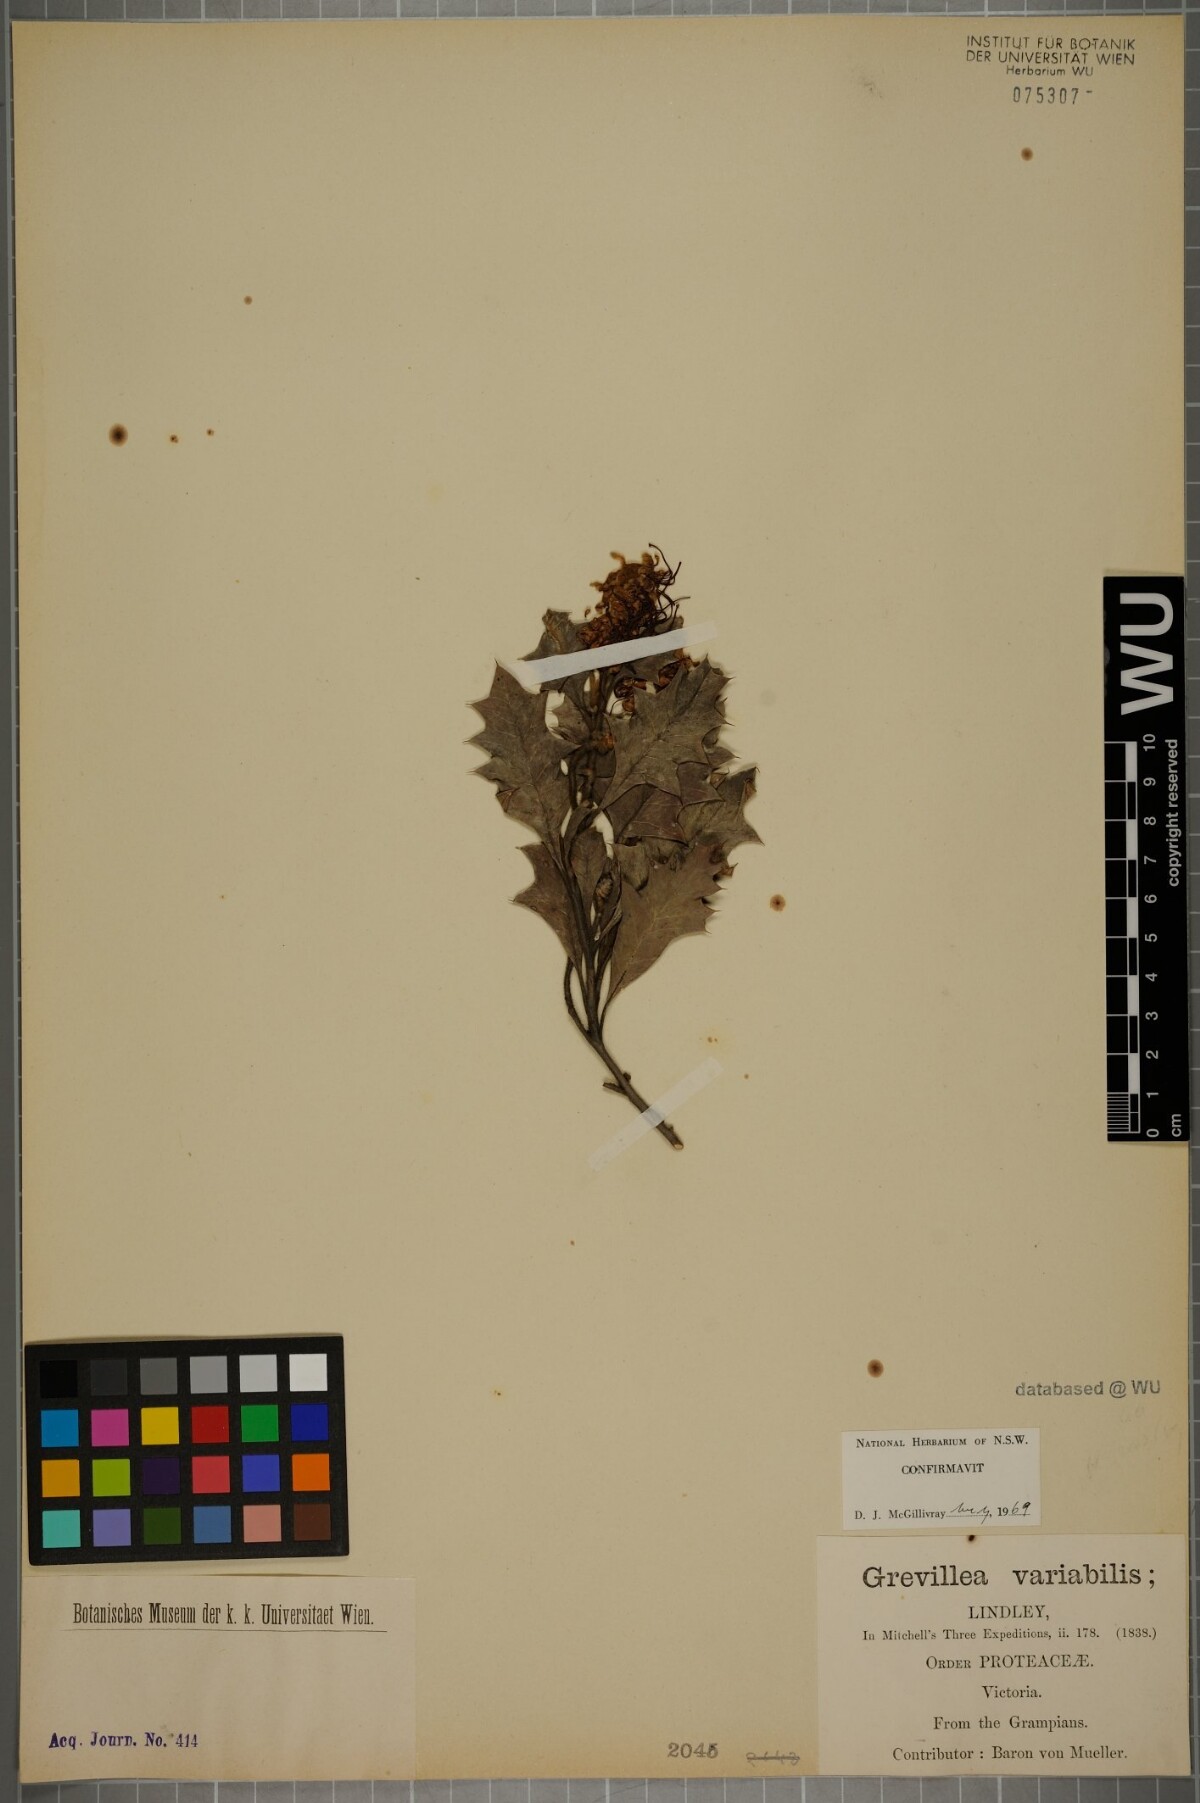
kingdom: Plantae
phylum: Tracheophyta
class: Magnoliopsida
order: Proteales
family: Proteaceae
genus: Grevillea
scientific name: Grevillea aquifolium
